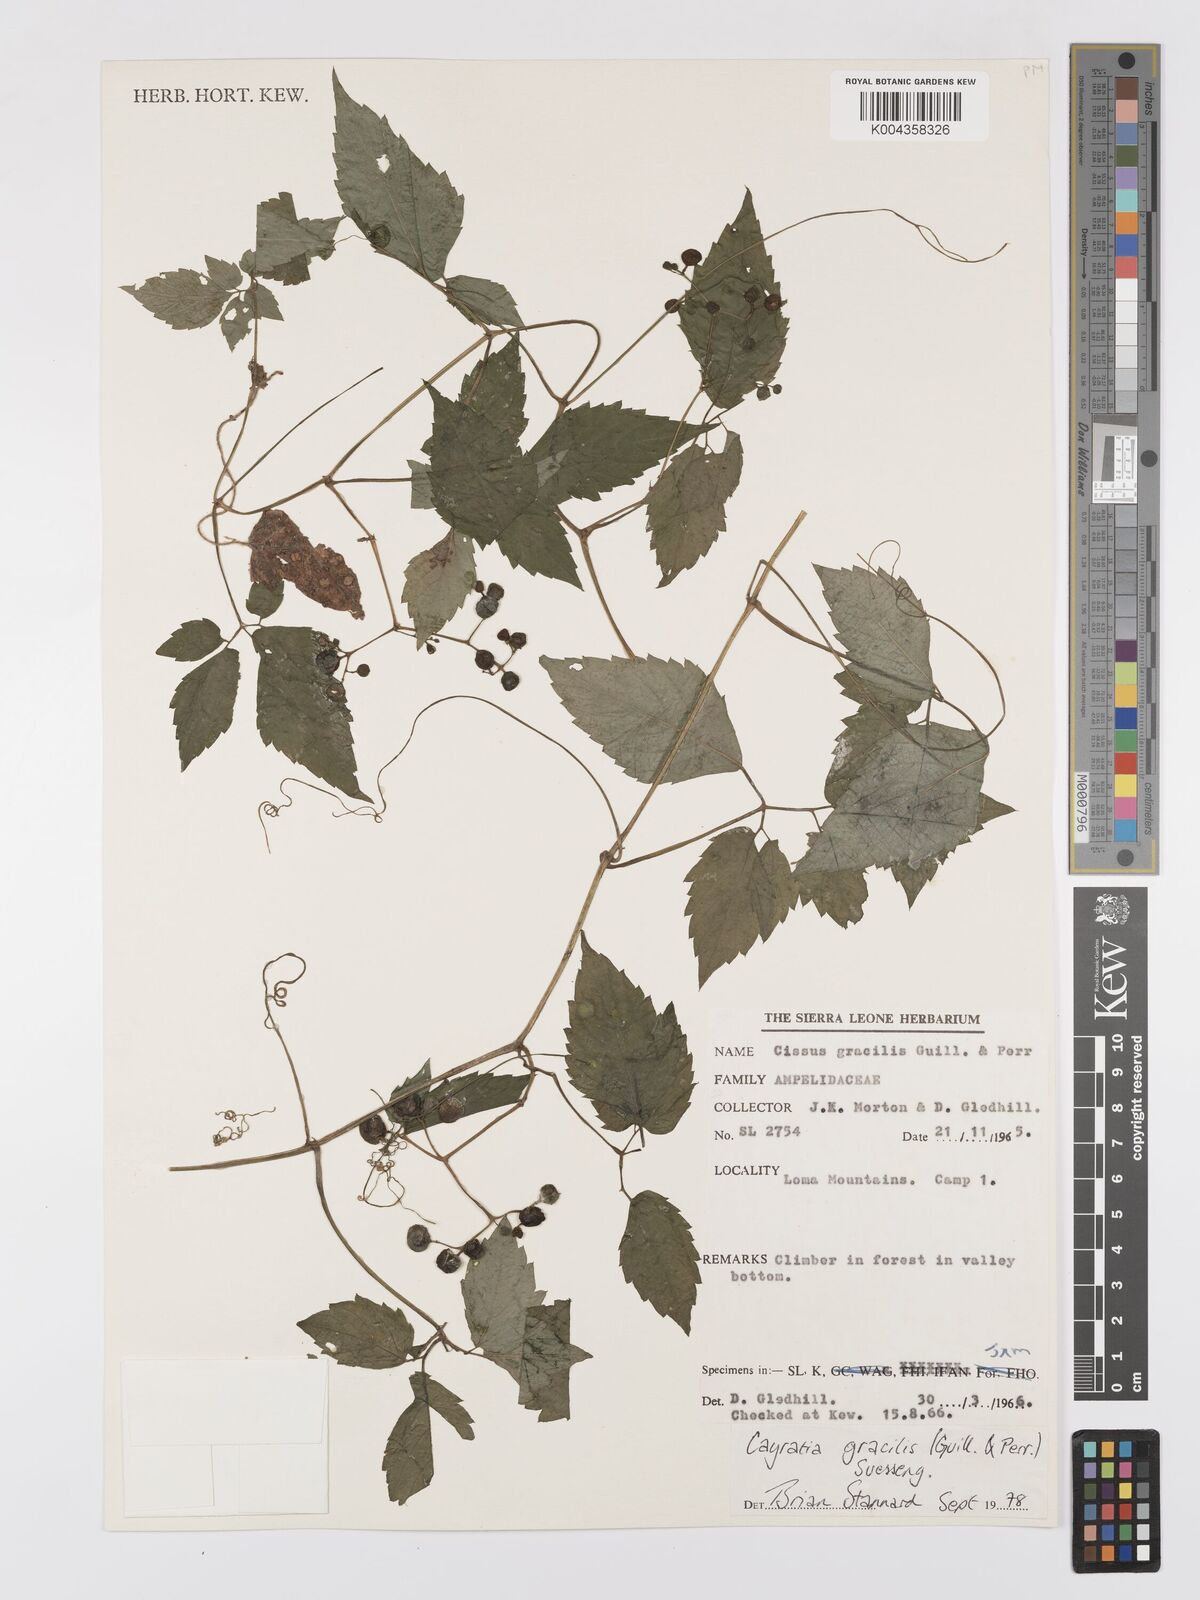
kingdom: Plantae
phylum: Tracheophyta
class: Magnoliopsida
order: Vitales
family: Vitaceae
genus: Afrocayratia
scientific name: Afrocayratia gracilis
